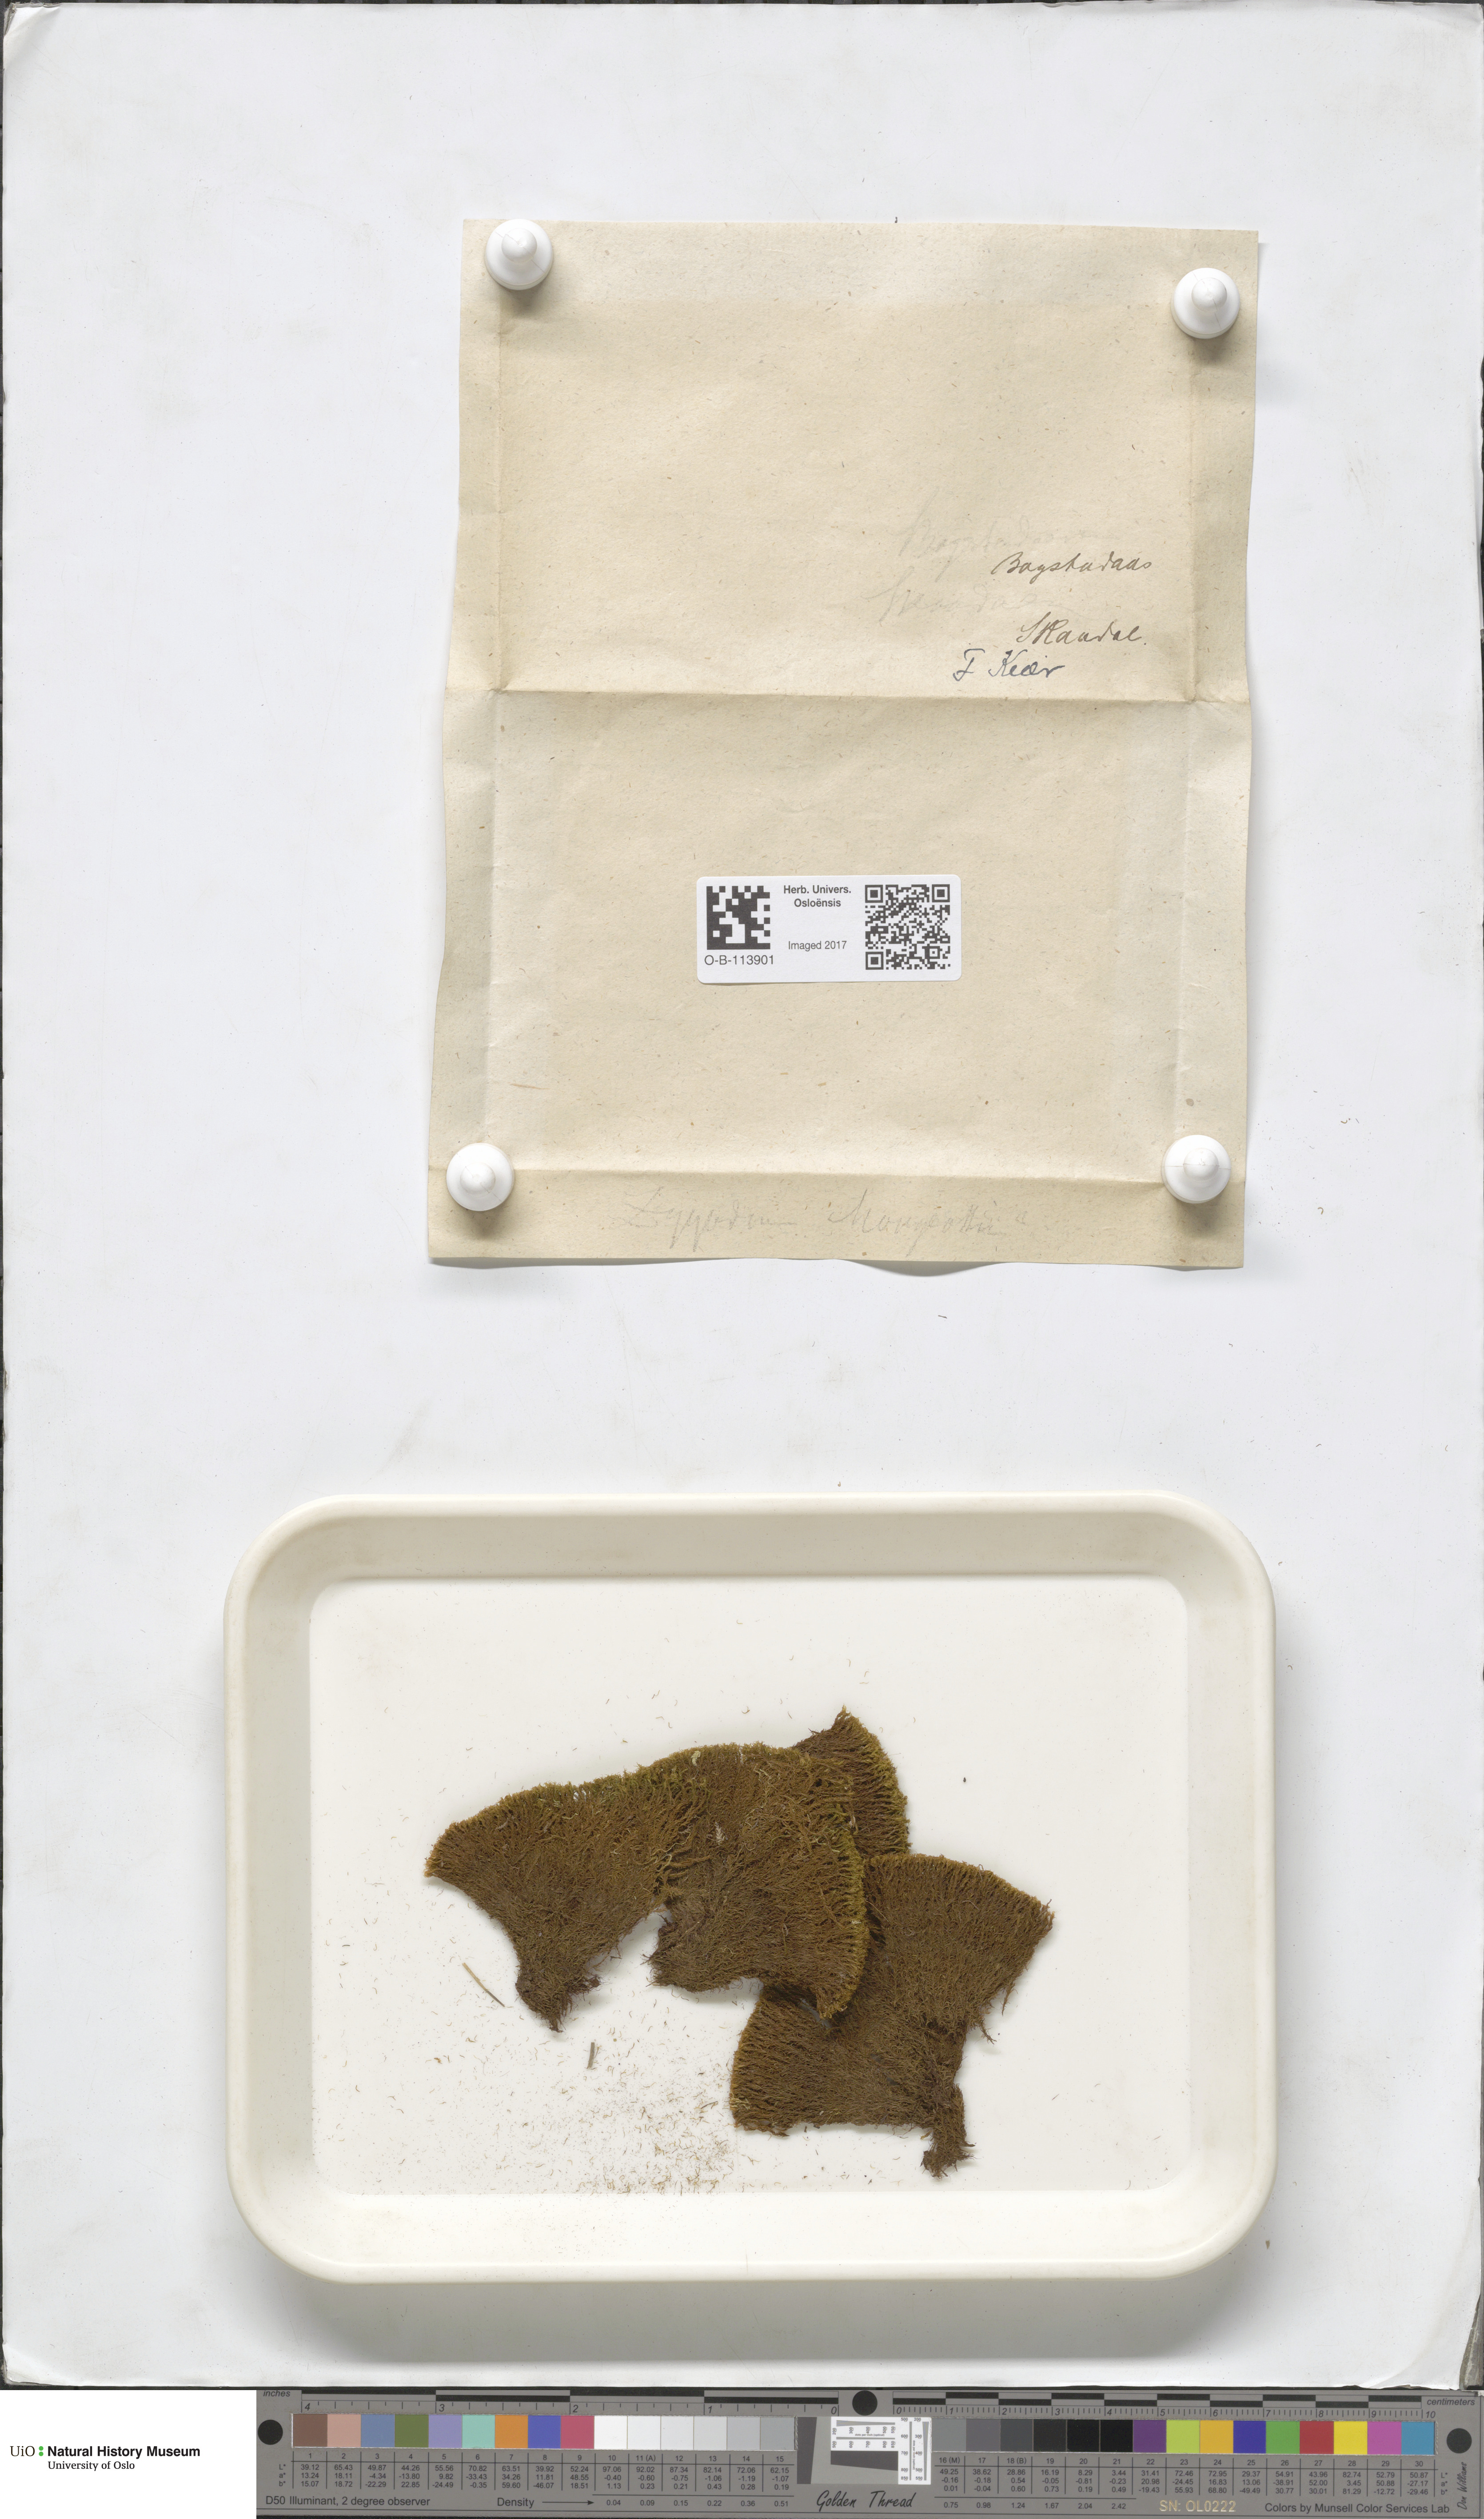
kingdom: Plantae
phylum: Bryophyta
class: Bryopsida
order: Dicranales
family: Amphidiaceae
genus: Amphidium
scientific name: Amphidium mougeotii
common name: Mougeot's yoke moss
